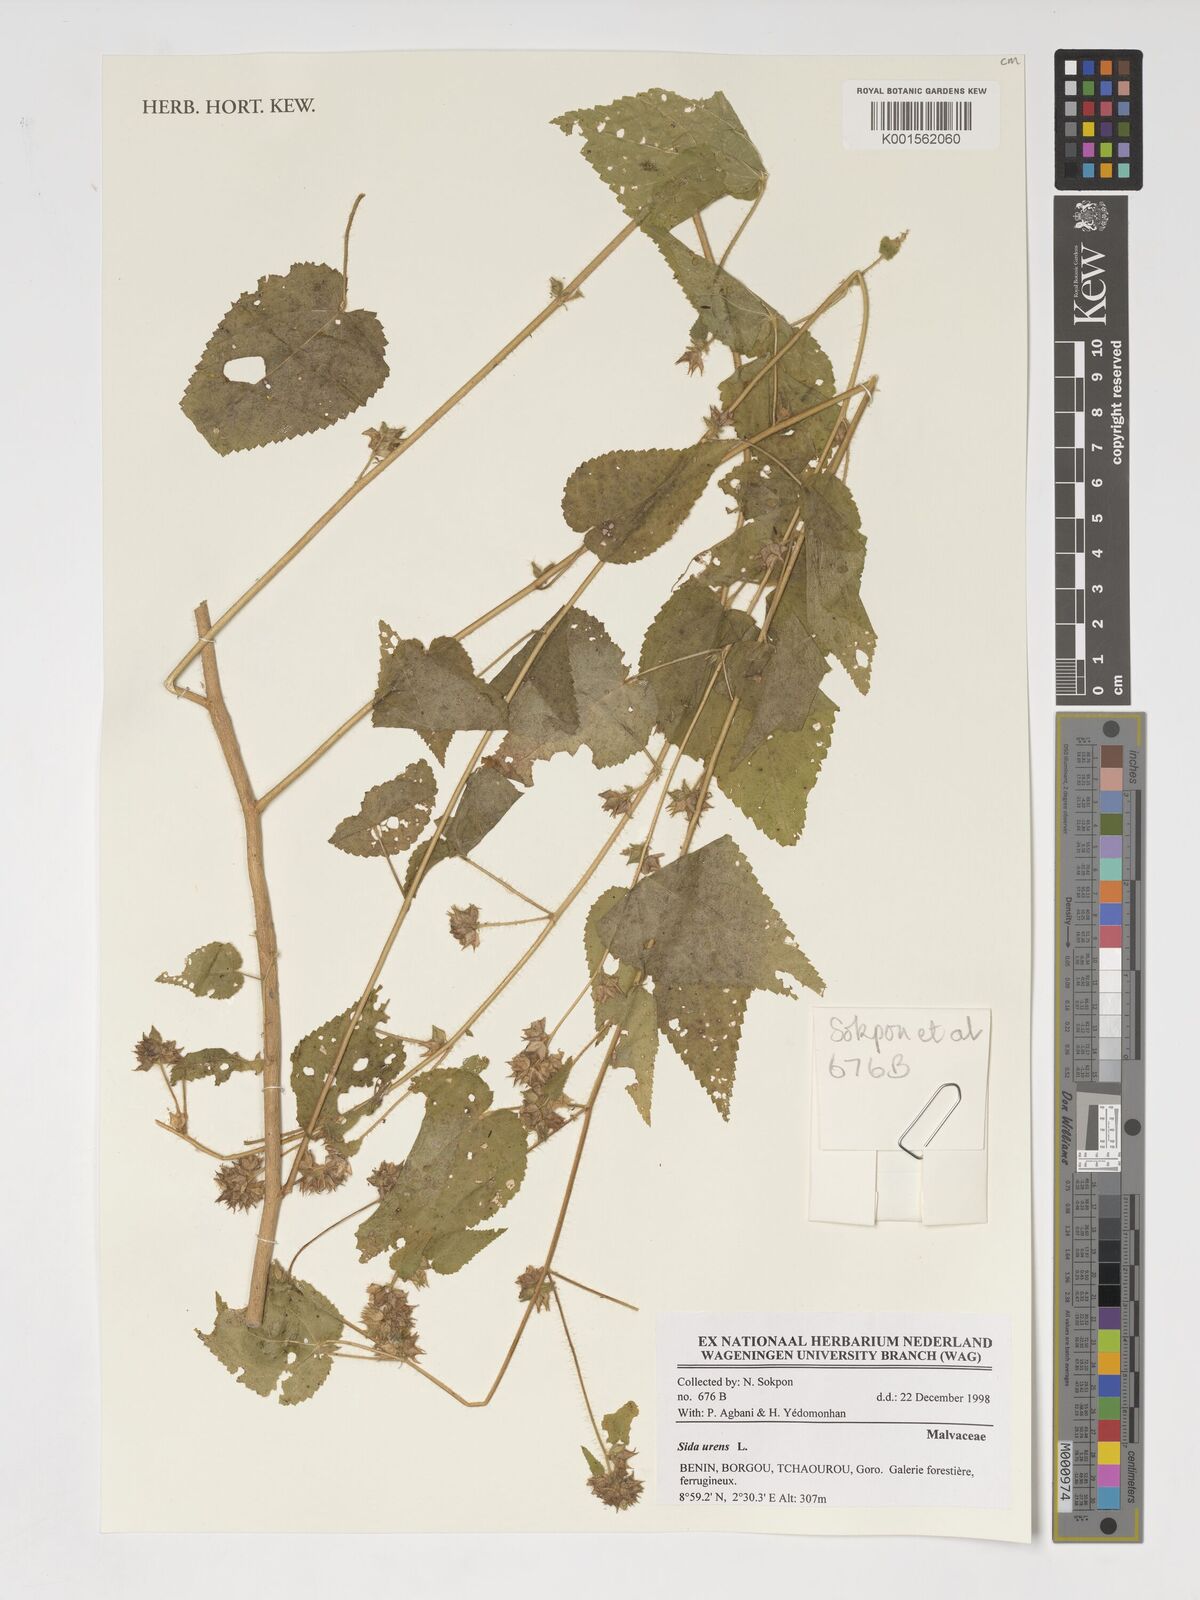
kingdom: Plantae
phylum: Tracheophyta
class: Magnoliopsida
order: Malvales
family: Malvaceae
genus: Sida
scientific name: Sida urens
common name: Tropical fanpetals
